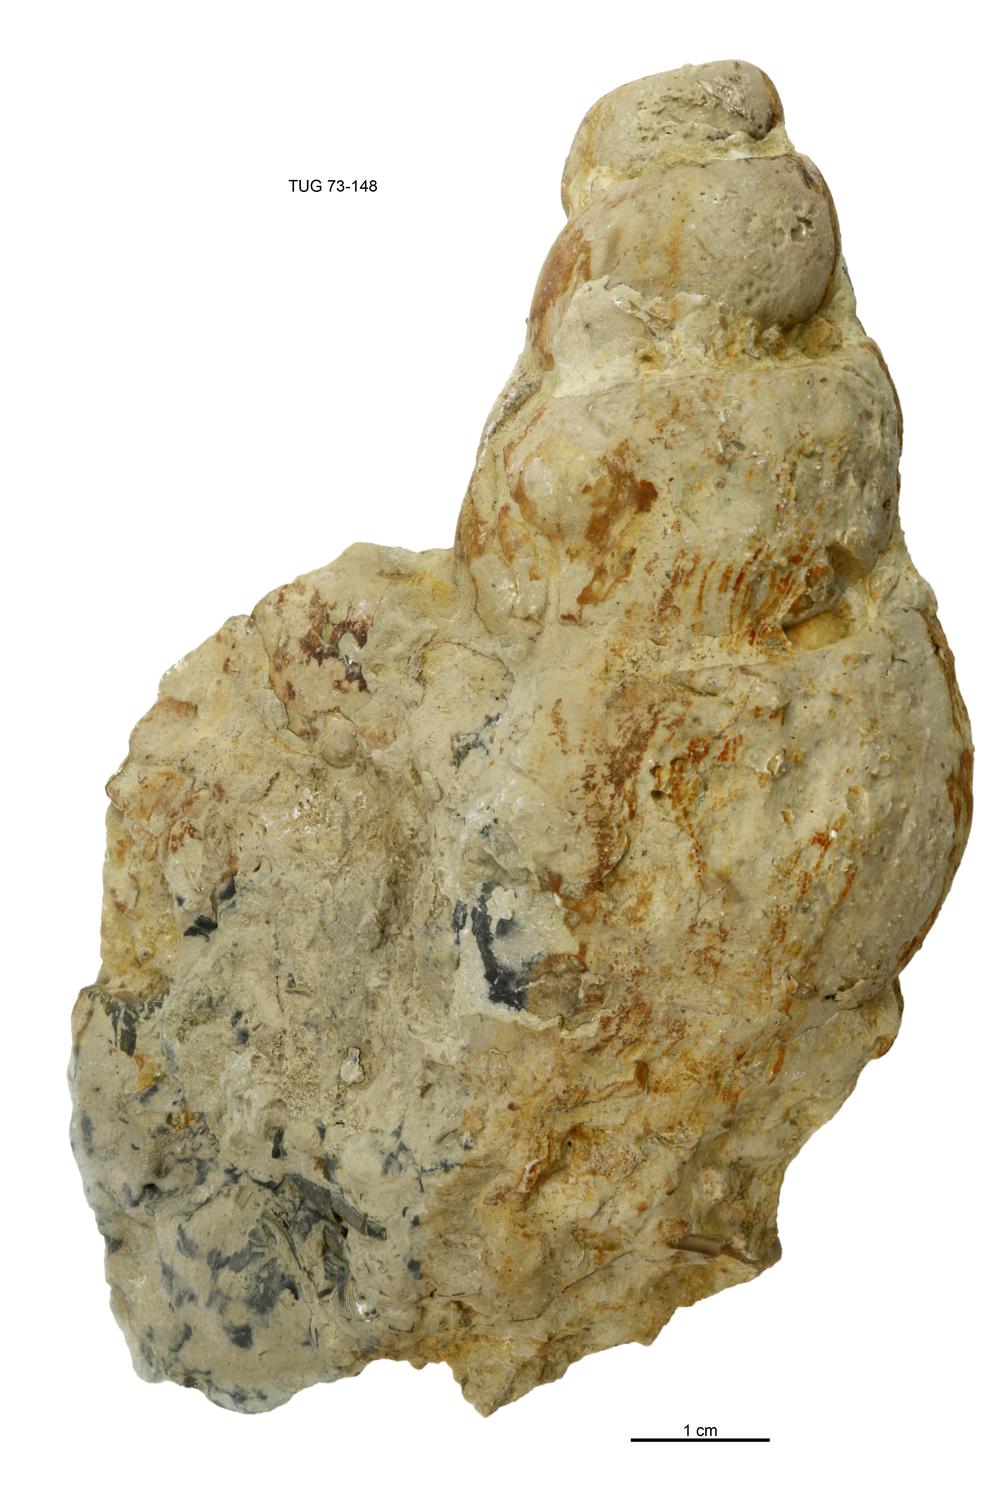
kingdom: Animalia
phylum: Mollusca
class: Gastropoda
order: Pleurotomariida
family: Murchisoniidae
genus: Murchisonia
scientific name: Murchisonia insignis
